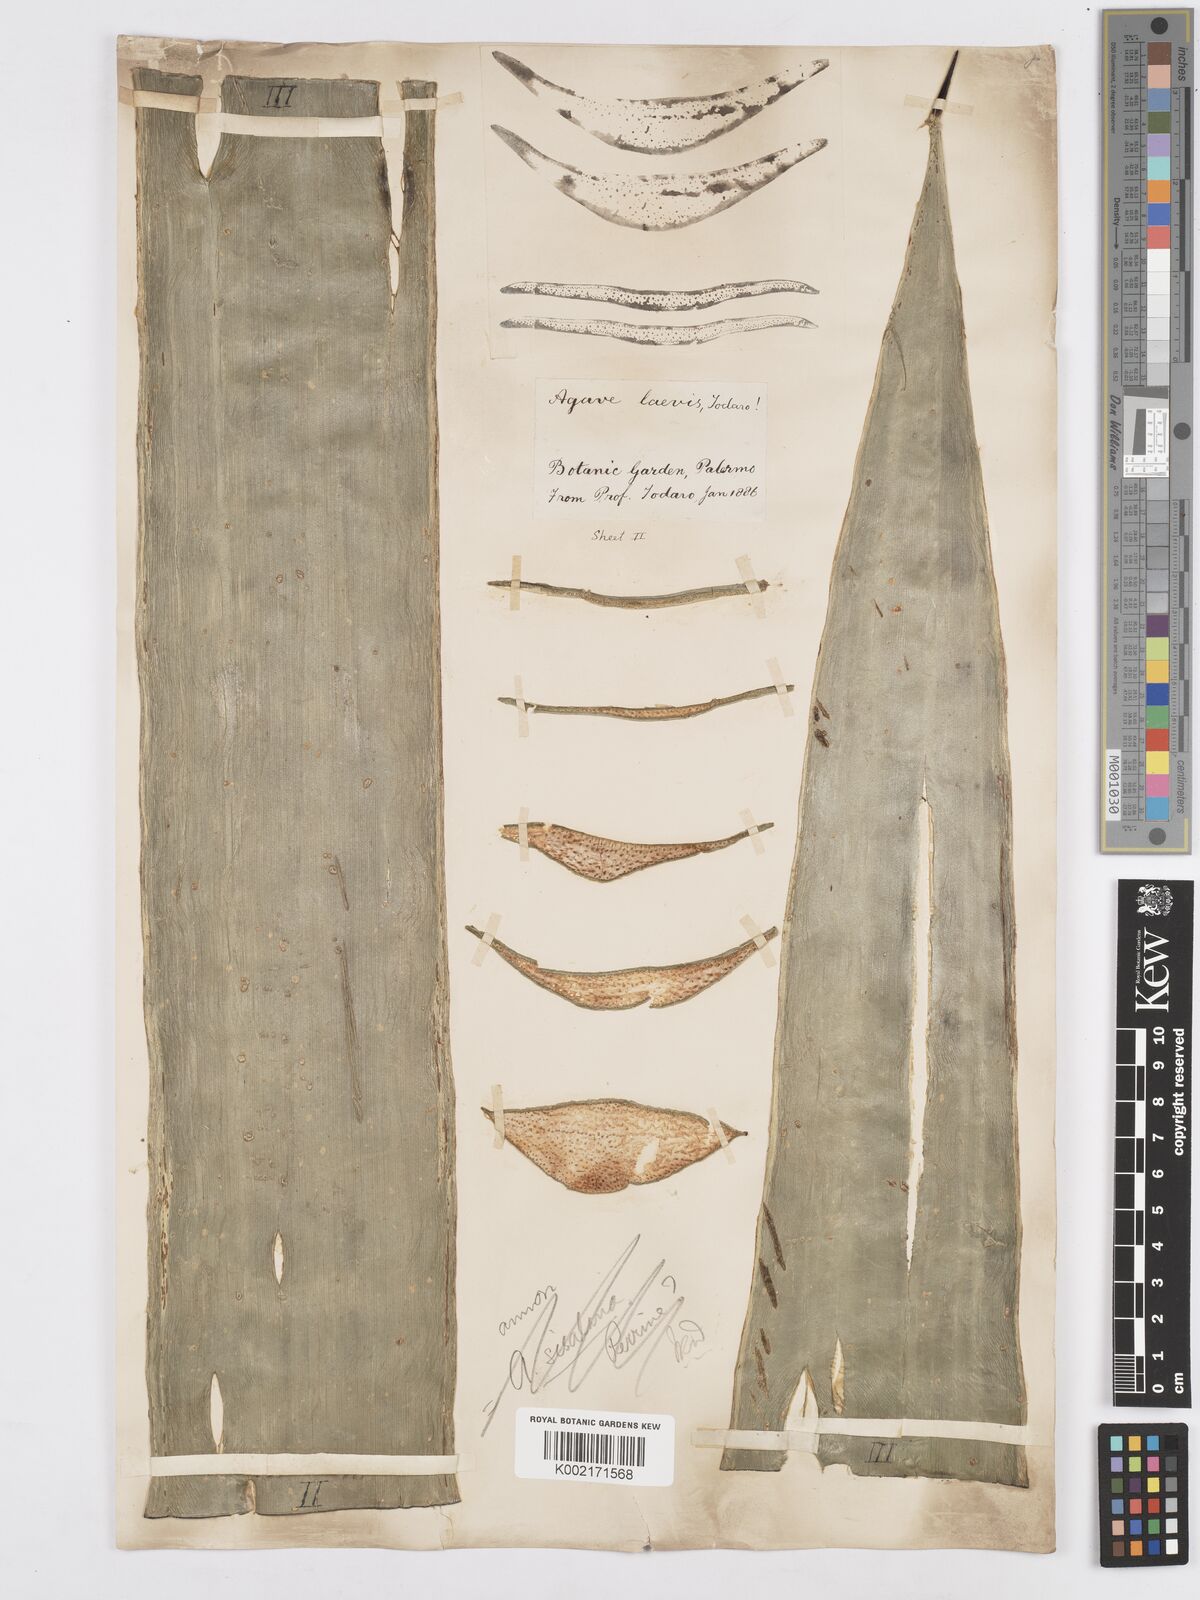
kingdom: Plantae
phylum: Tracheophyta
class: Liliopsida
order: Asparagales
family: Asparagaceae
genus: Agave
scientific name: Agave
